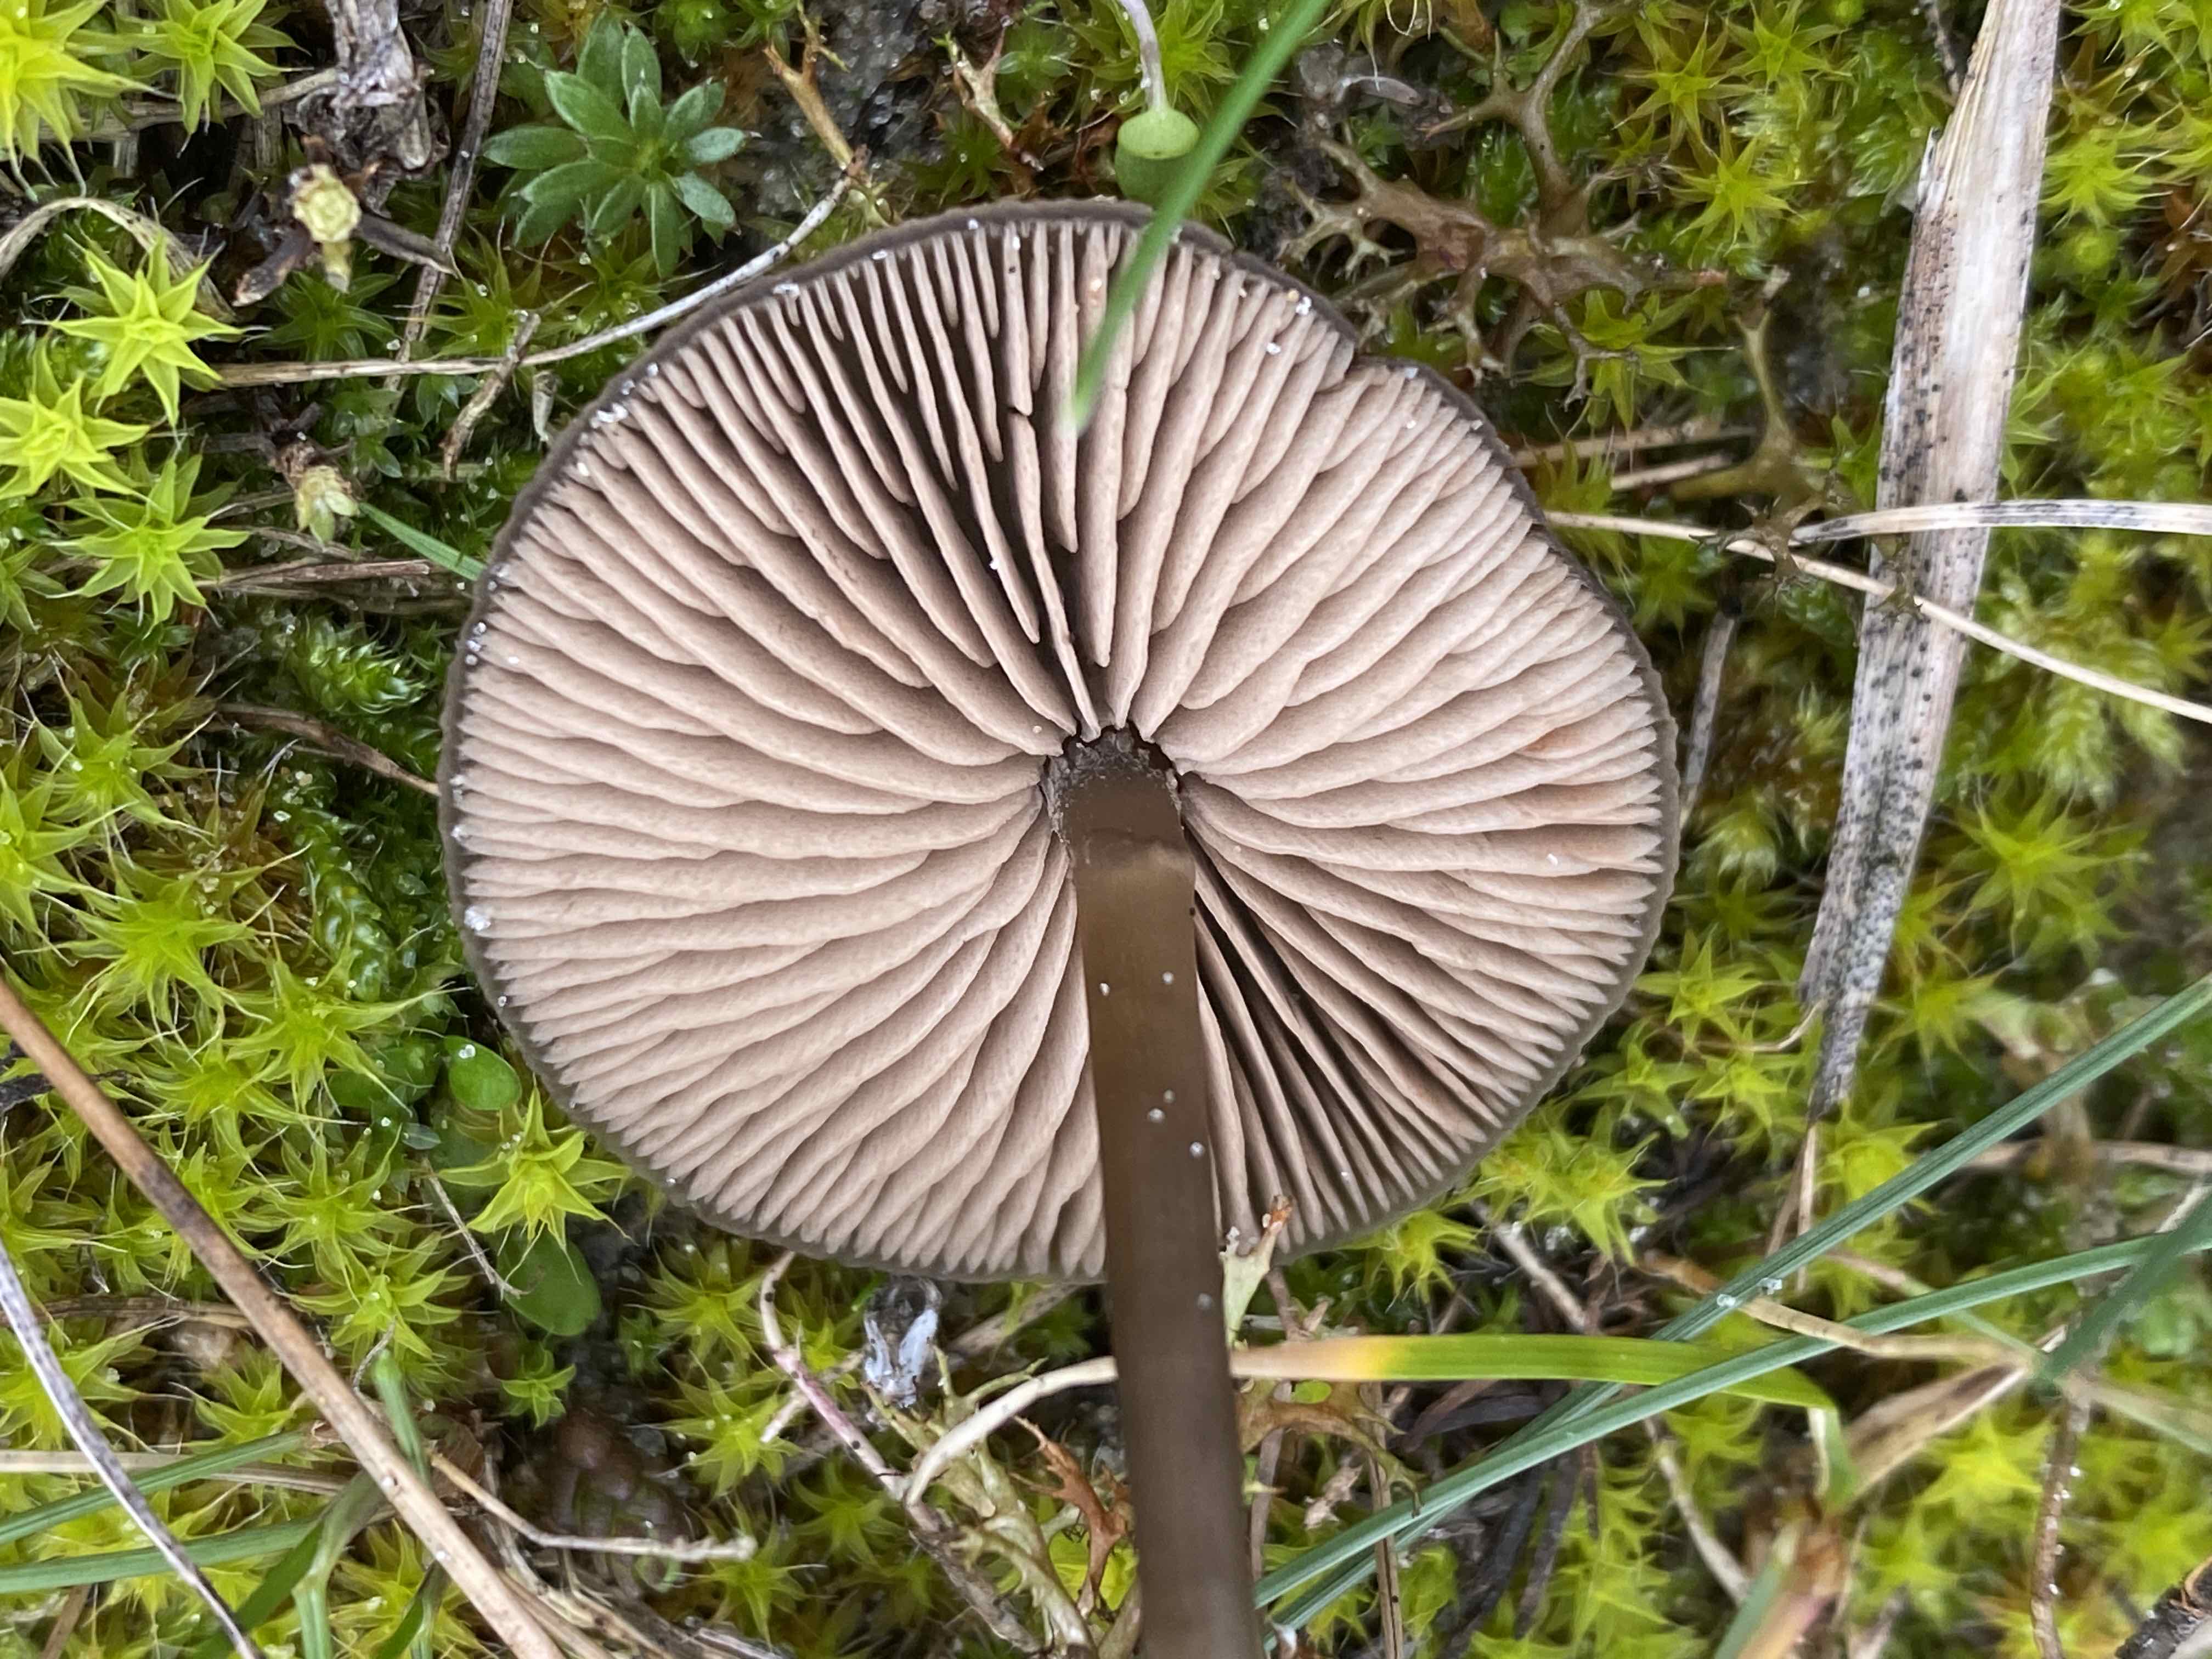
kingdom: Fungi
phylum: Basidiomycota
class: Agaricomycetes
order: Agaricales
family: Entolomataceae
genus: Entoloma
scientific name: Entoloma sericeum
